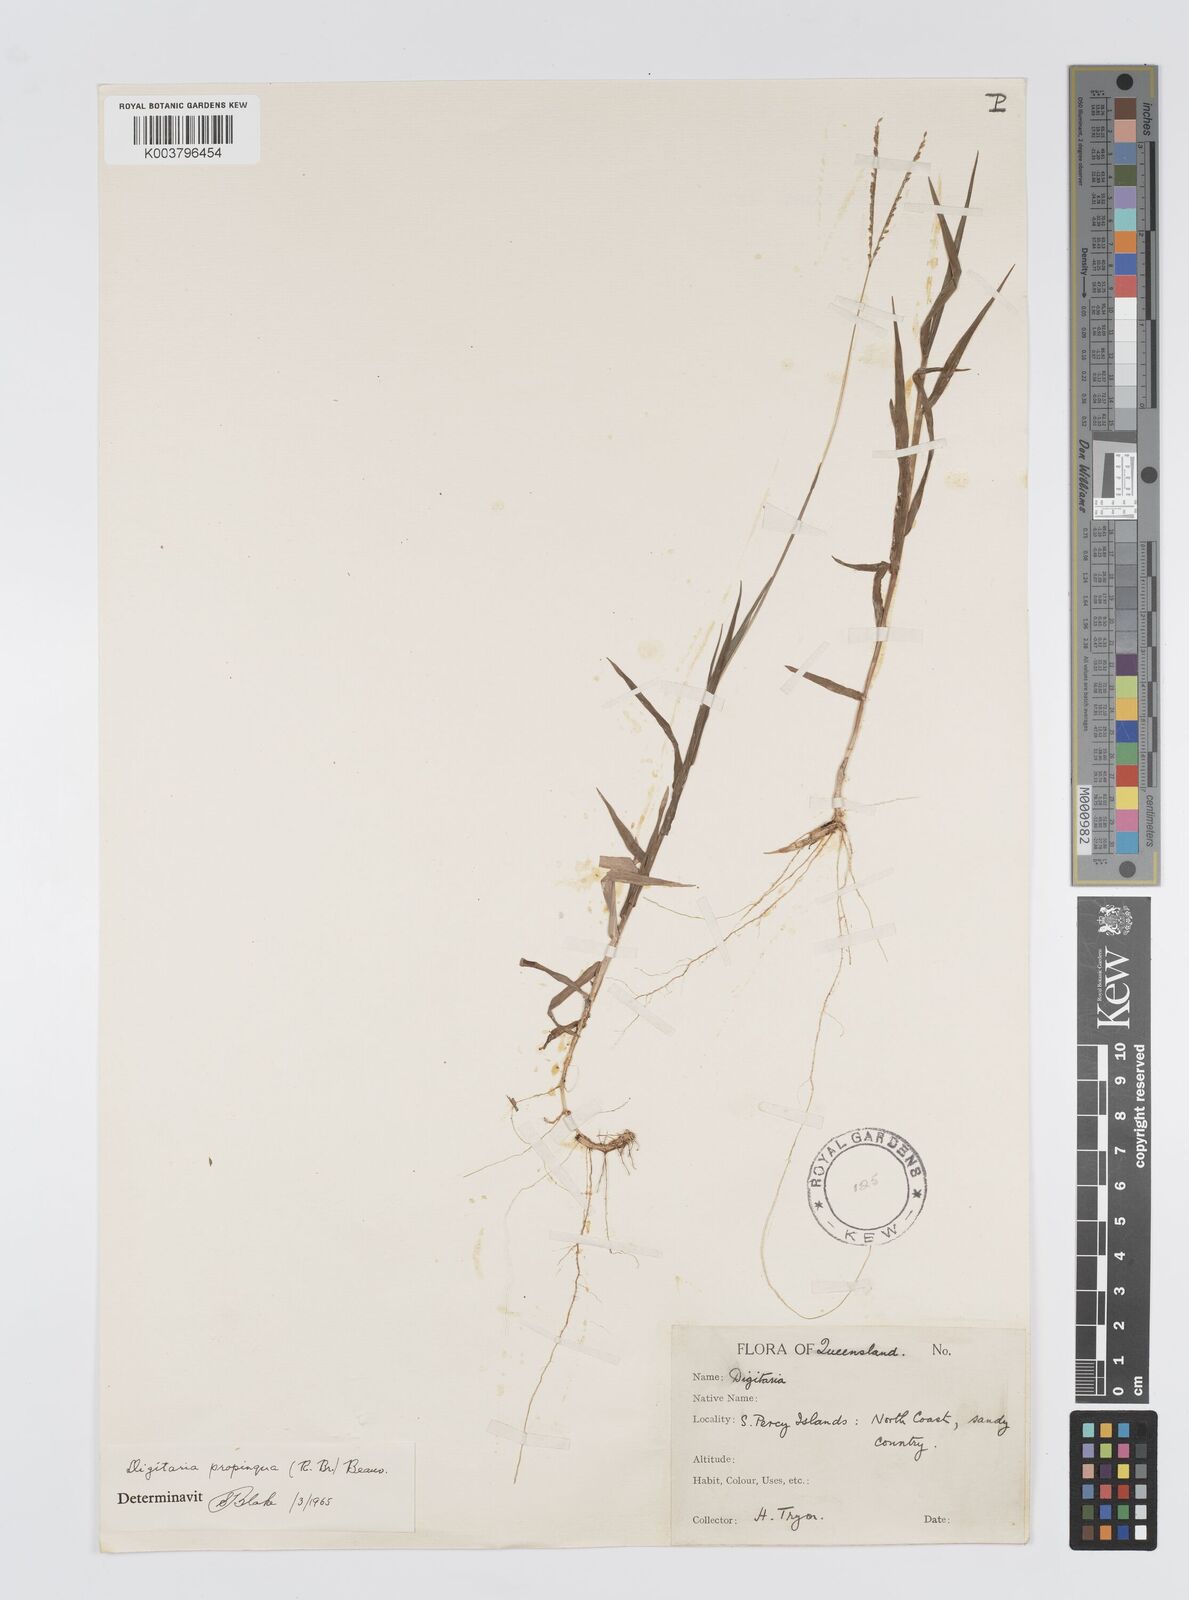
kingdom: Plantae
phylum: Tracheophyta
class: Liliopsida
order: Poales
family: Poaceae
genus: Digitaria
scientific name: Digitaria longiflora
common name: Wire crabgrass
